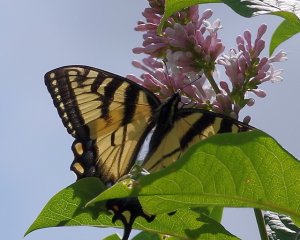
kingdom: Animalia
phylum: Arthropoda
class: Insecta
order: Lepidoptera
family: Papilionidae
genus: Pterourus
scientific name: Pterourus glaucus
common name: Eastern Tiger Swallowtail
